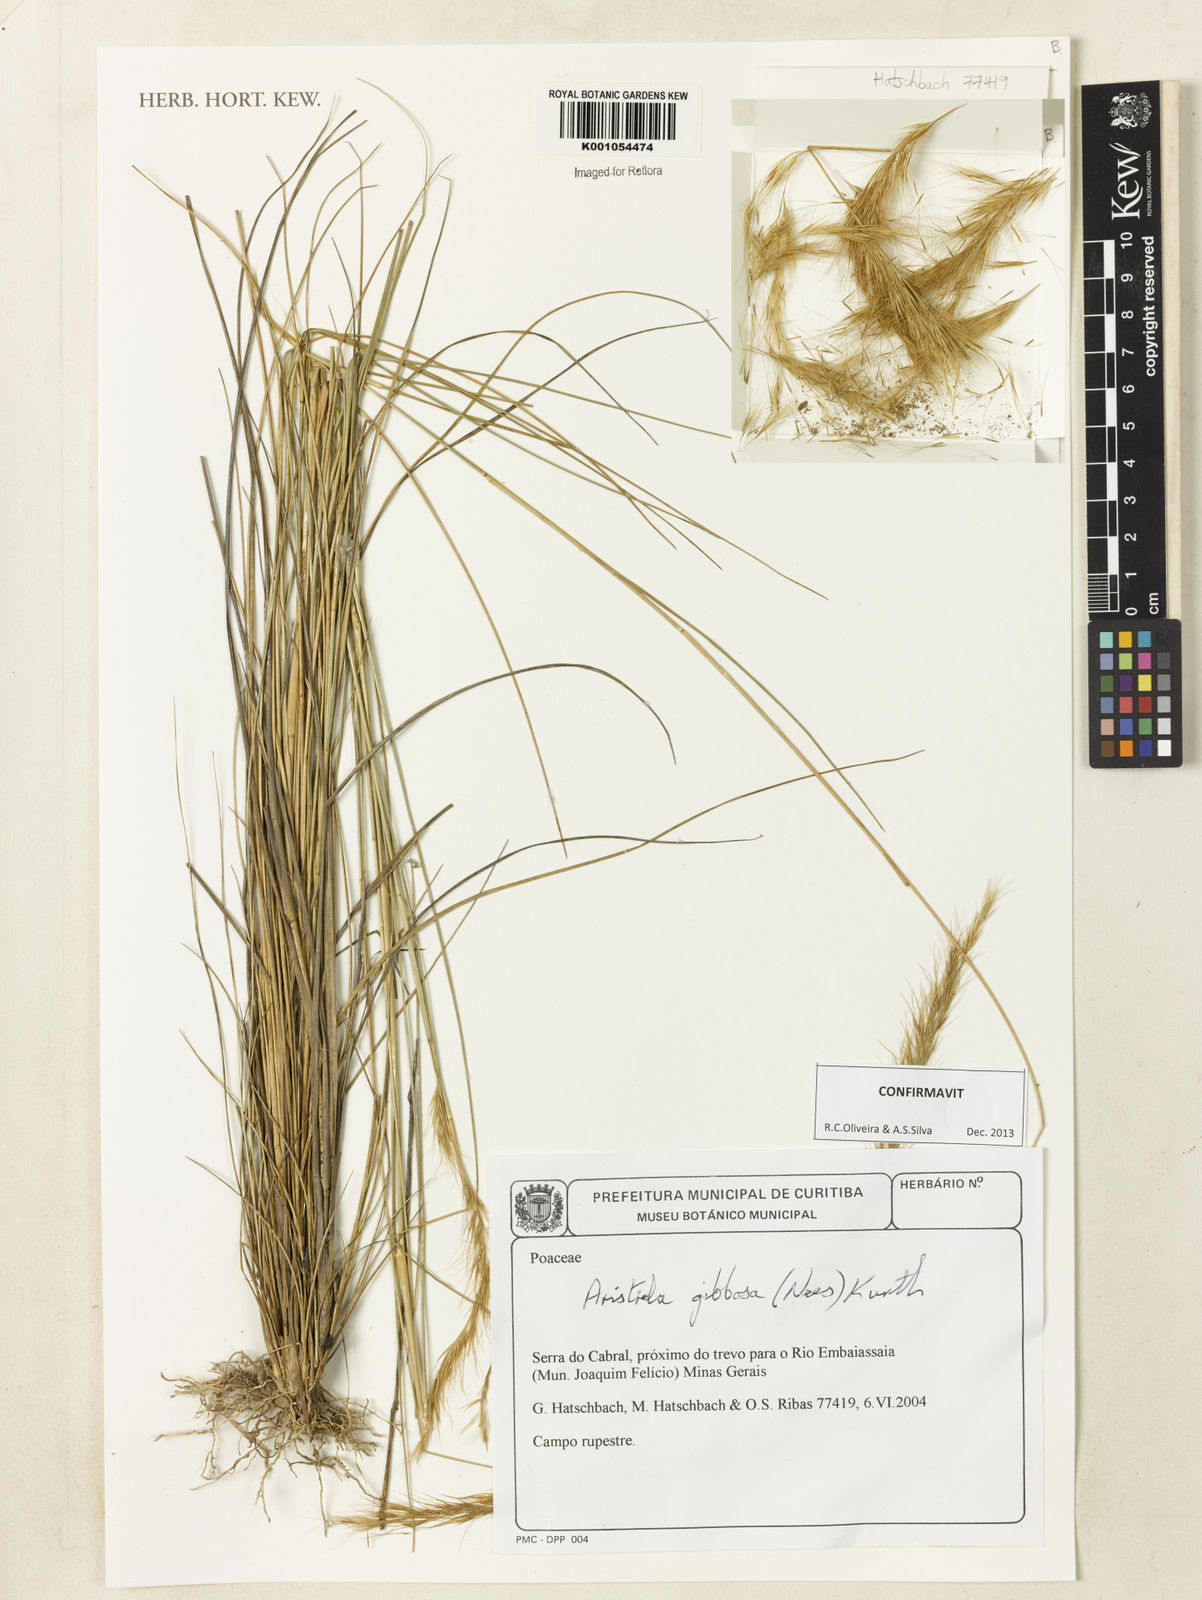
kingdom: Plantae
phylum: Tracheophyta
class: Liliopsida
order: Poales
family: Poaceae
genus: Aristida
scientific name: Aristida gibbosa
